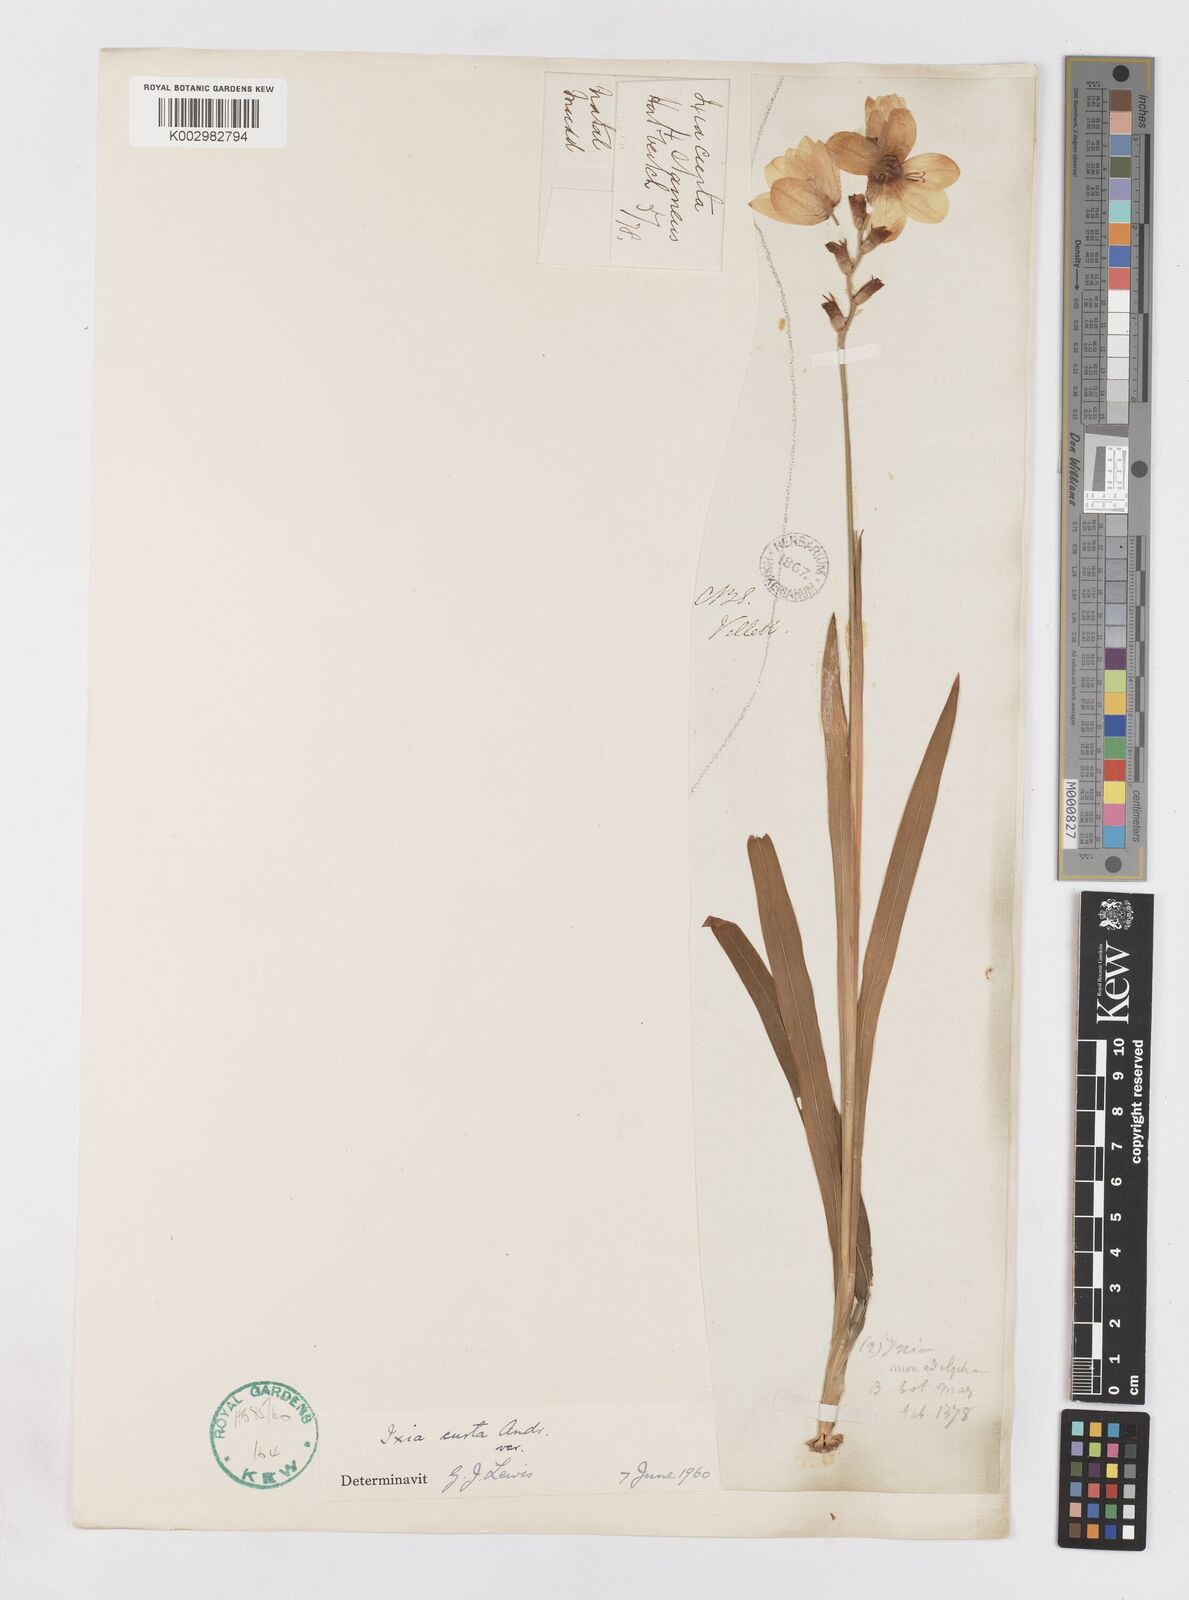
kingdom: Plantae
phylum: Tracheophyta
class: Liliopsida
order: Asparagales
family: Iridaceae
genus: Ixia
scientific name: Ixia curta
